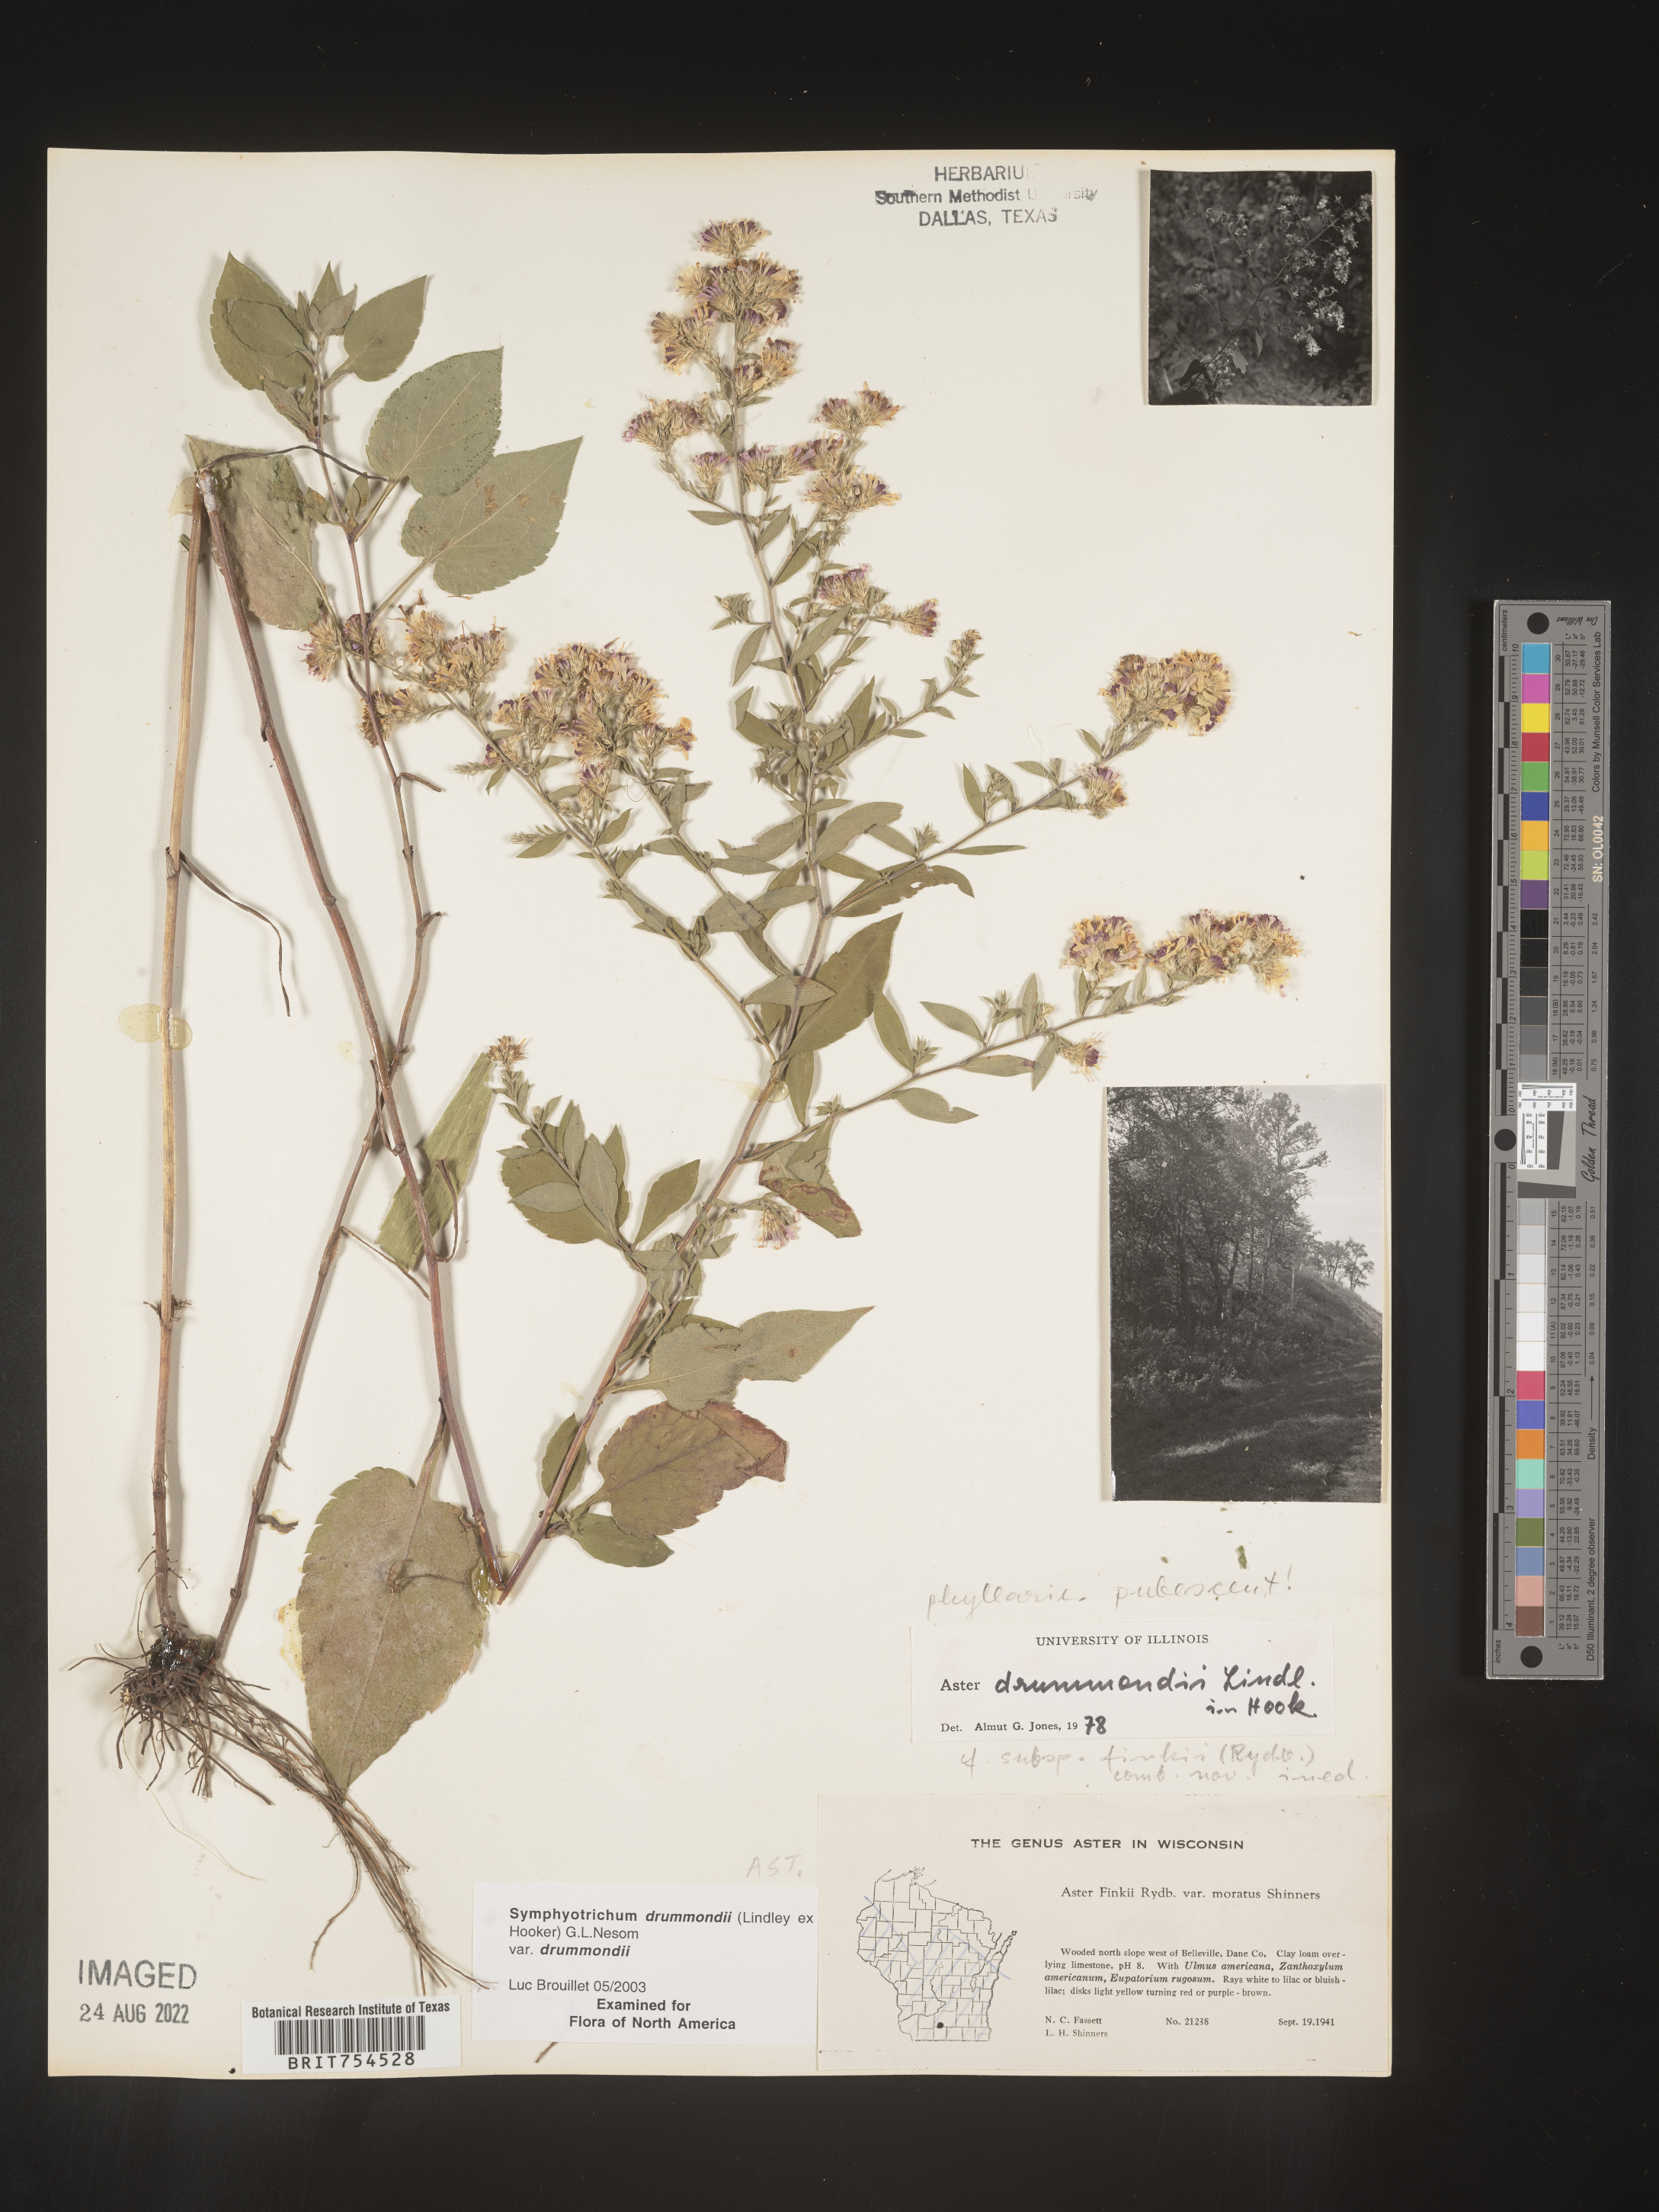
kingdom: Plantae
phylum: Tracheophyta
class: Magnoliopsida
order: Asterales
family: Asteraceae
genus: Symphyotrichum
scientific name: Symphyotrichum drummondii
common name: Drummond's aster
